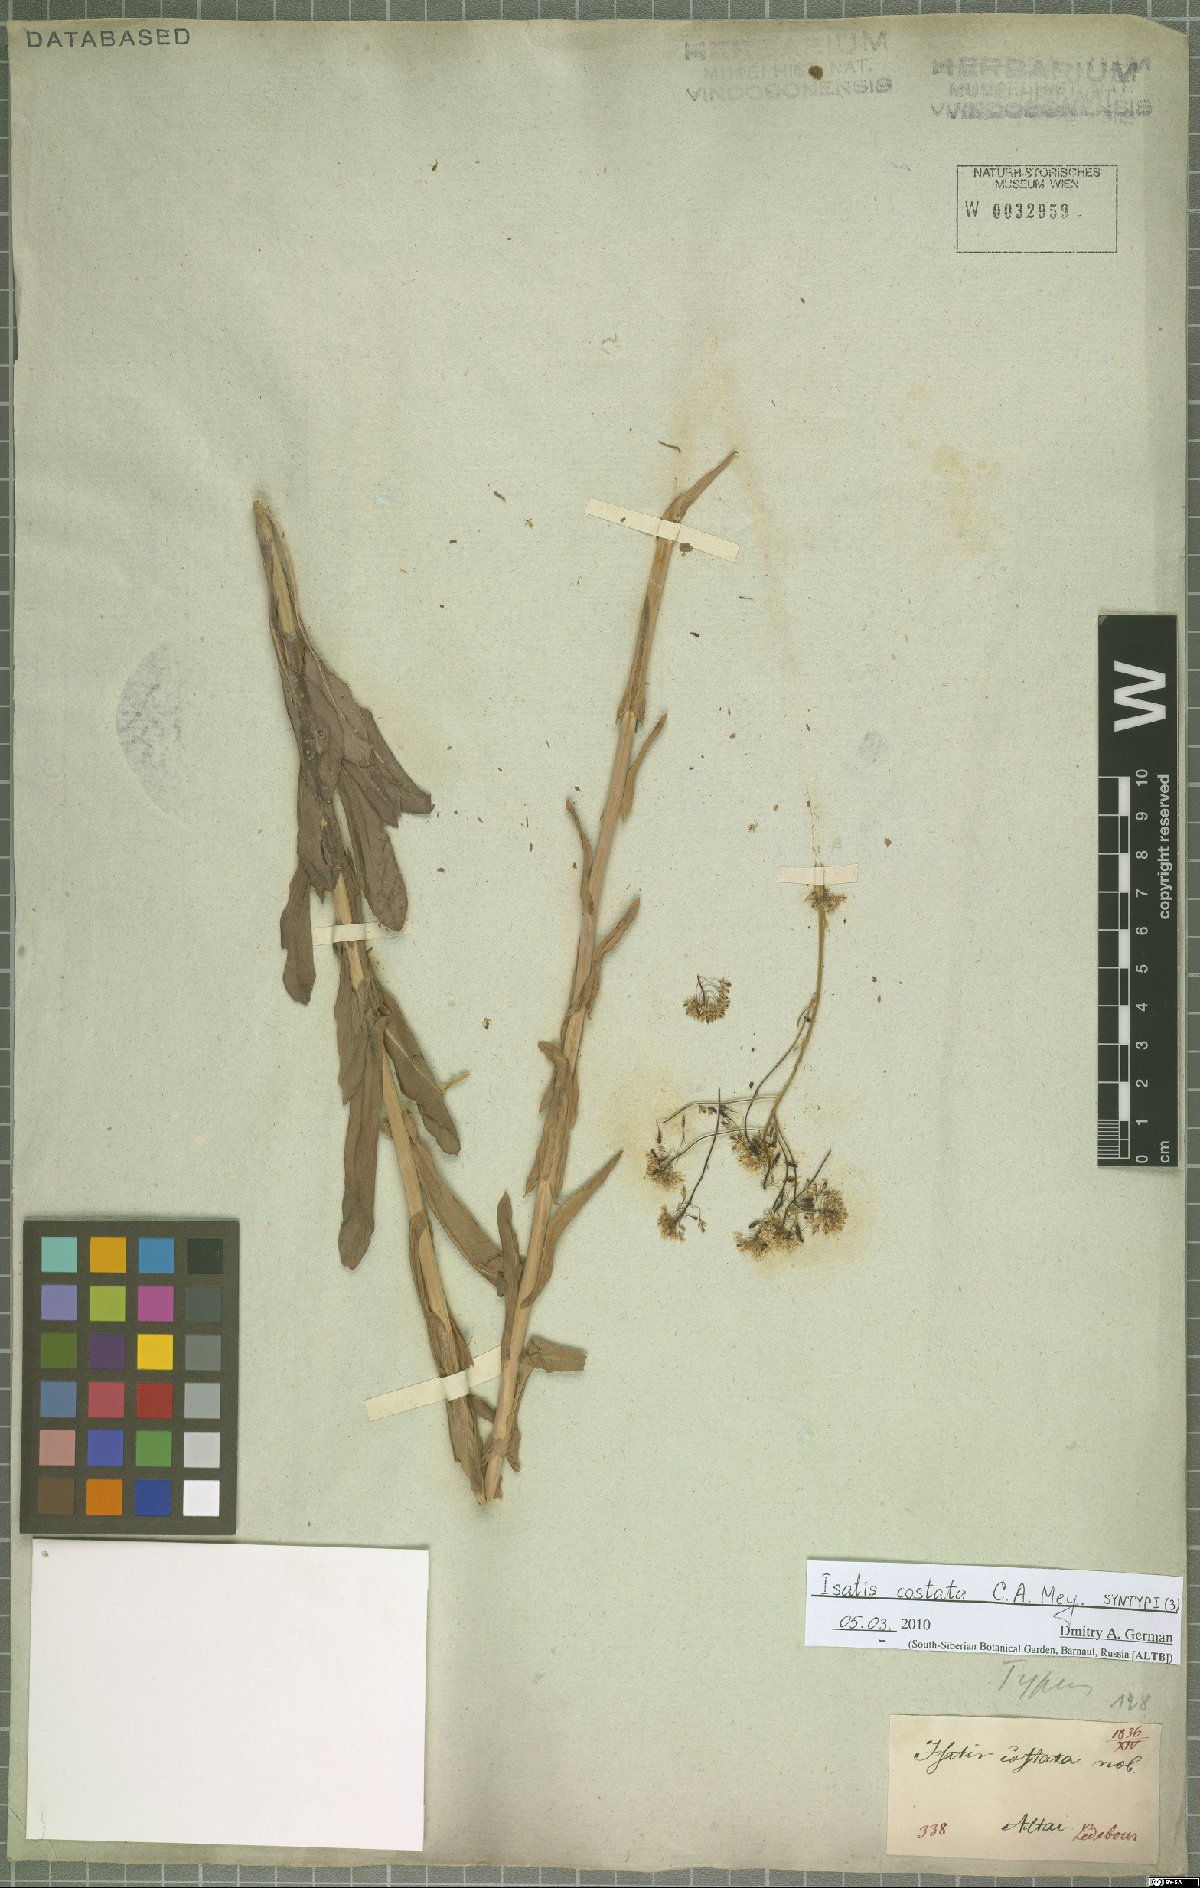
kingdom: Plantae
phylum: Tracheophyta
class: Magnoliopsida
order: Brassicales
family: Brassicaceae
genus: Isatis
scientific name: Isatis costata
